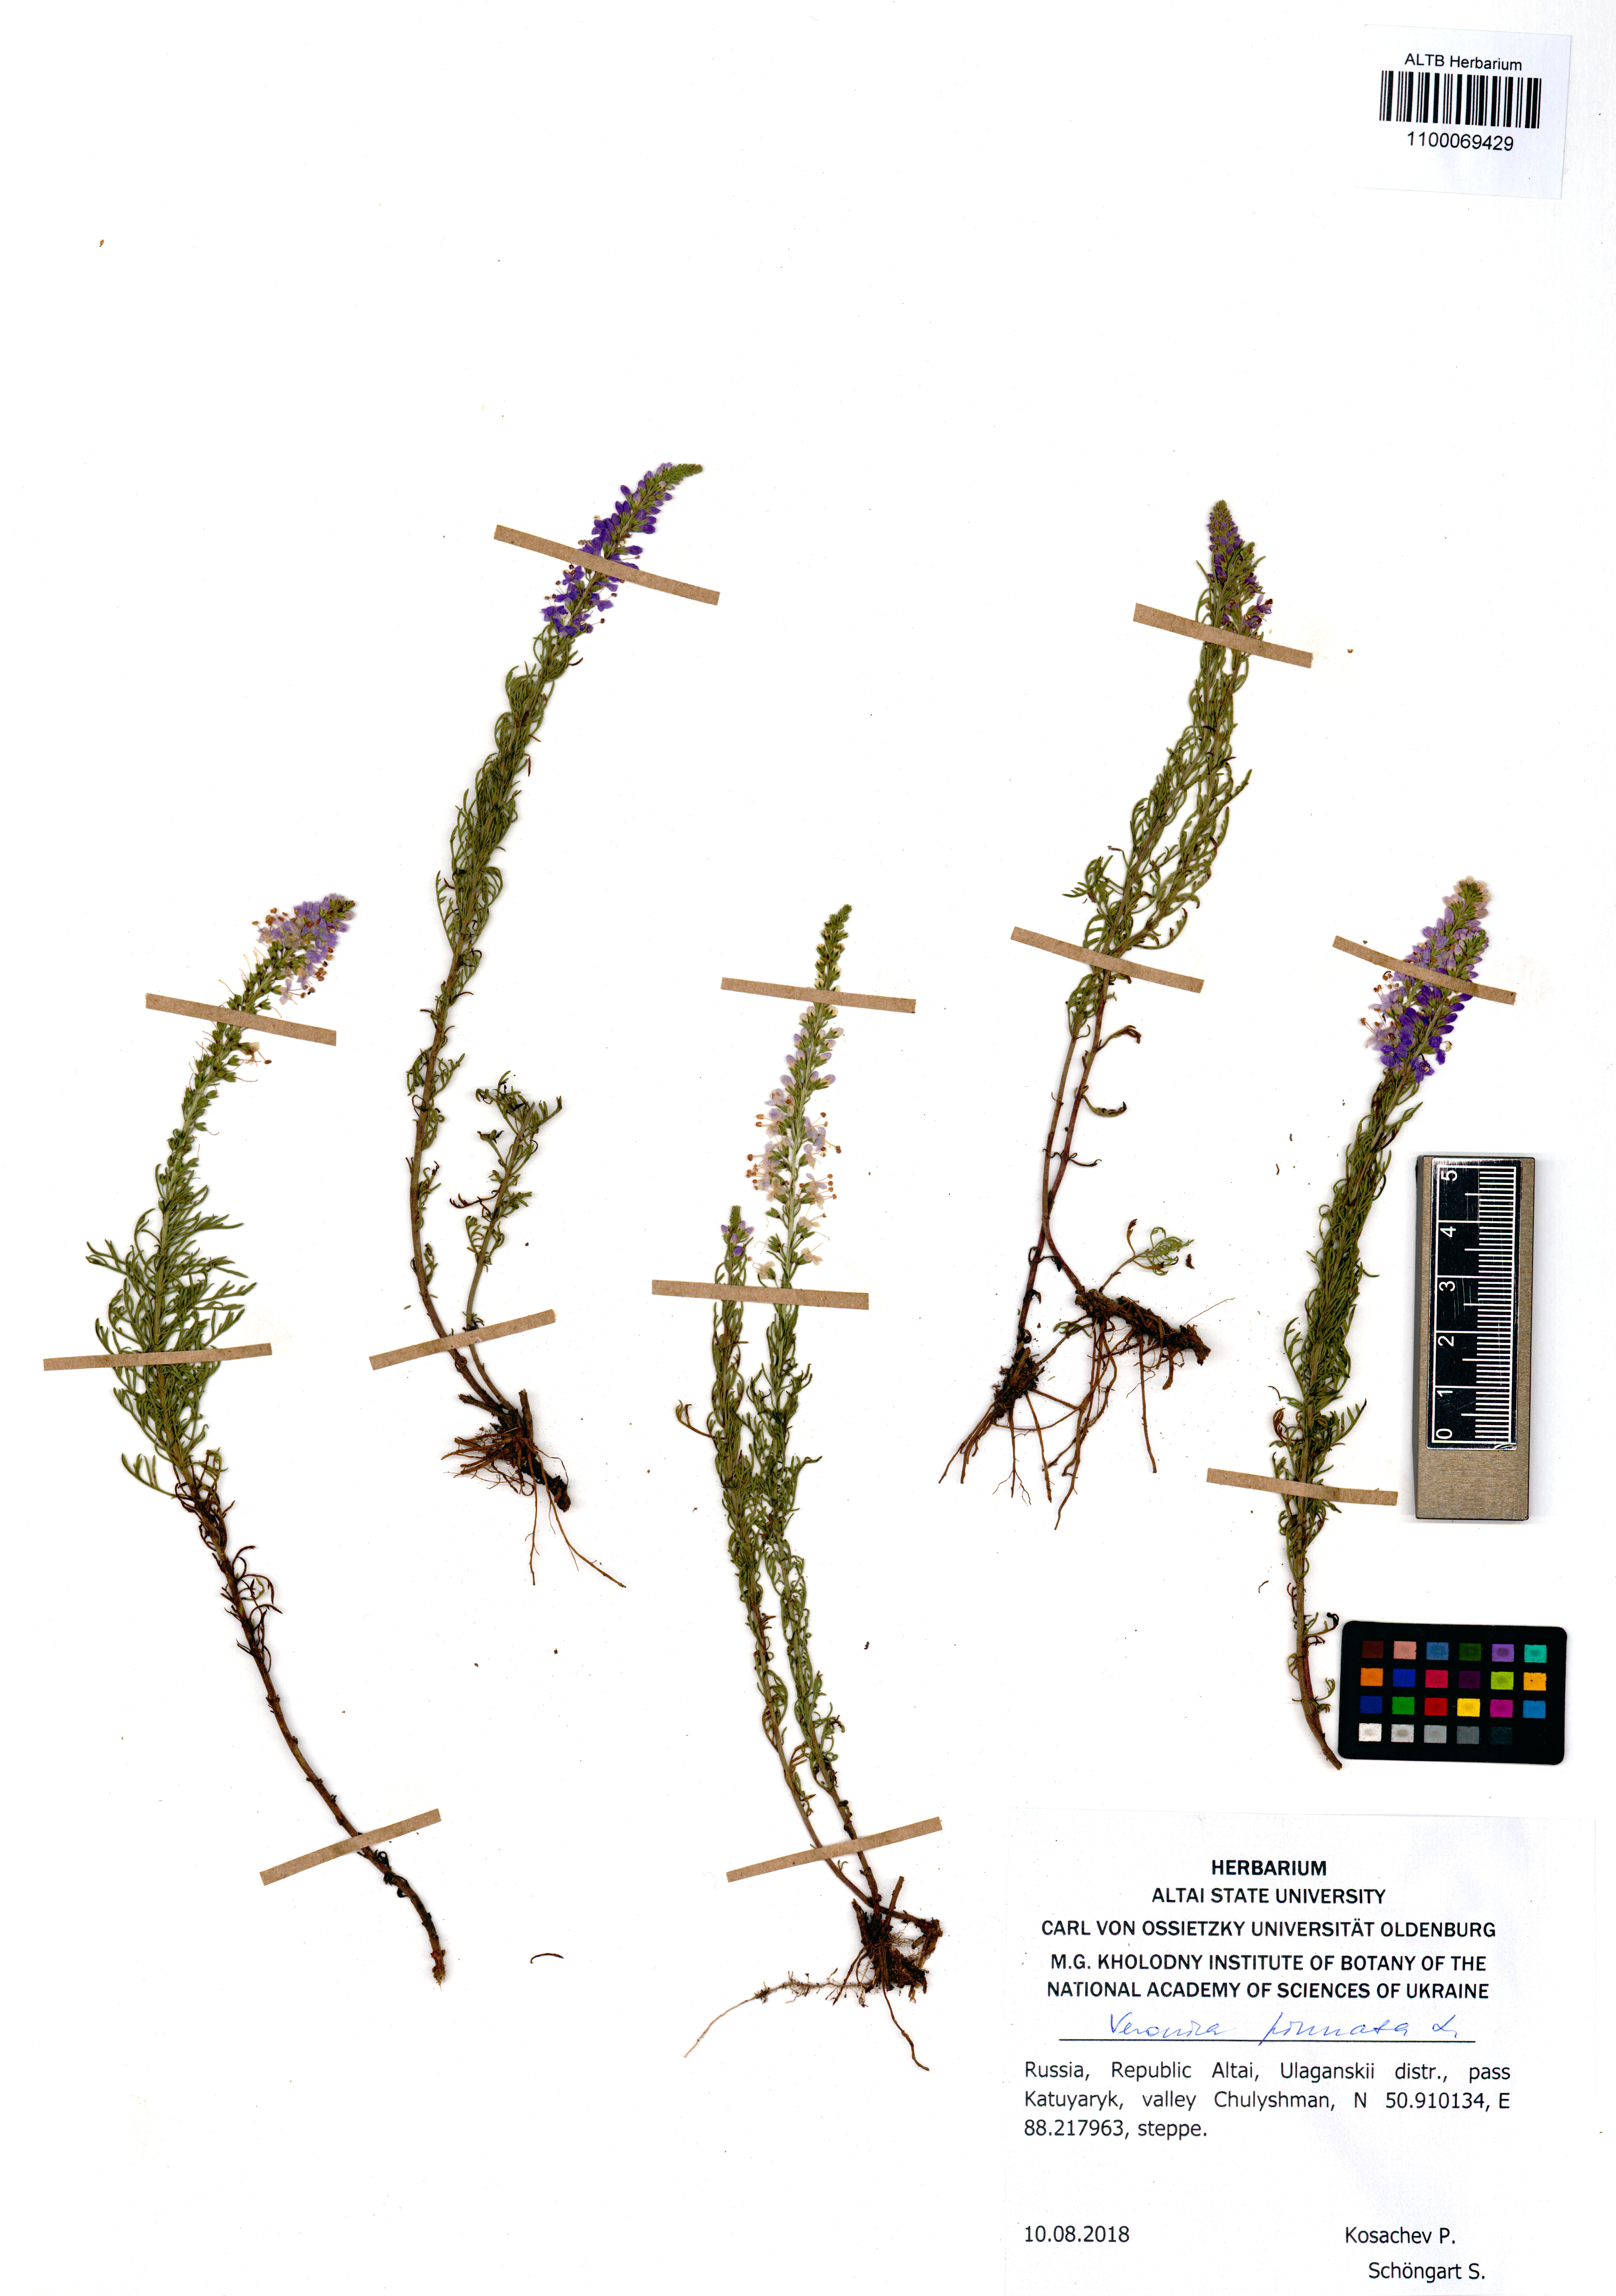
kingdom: Plantae
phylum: Tracheophyta
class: Magnoliopsida
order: Lamiales
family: Plantaginaceae
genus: Veronica
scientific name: Veronica pinnata
